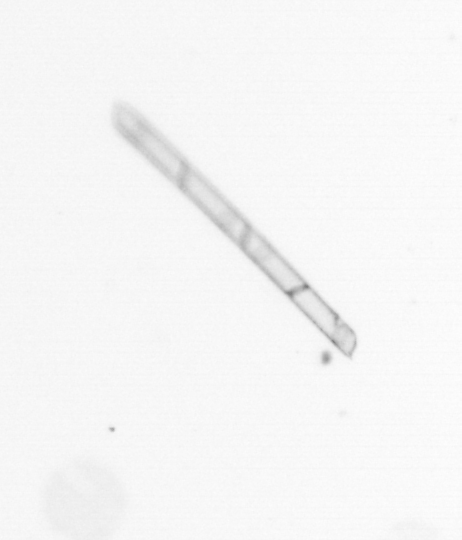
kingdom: Chromista
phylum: Ochrophyta
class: Bacillariophyceae
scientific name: Bacillariophyceae
